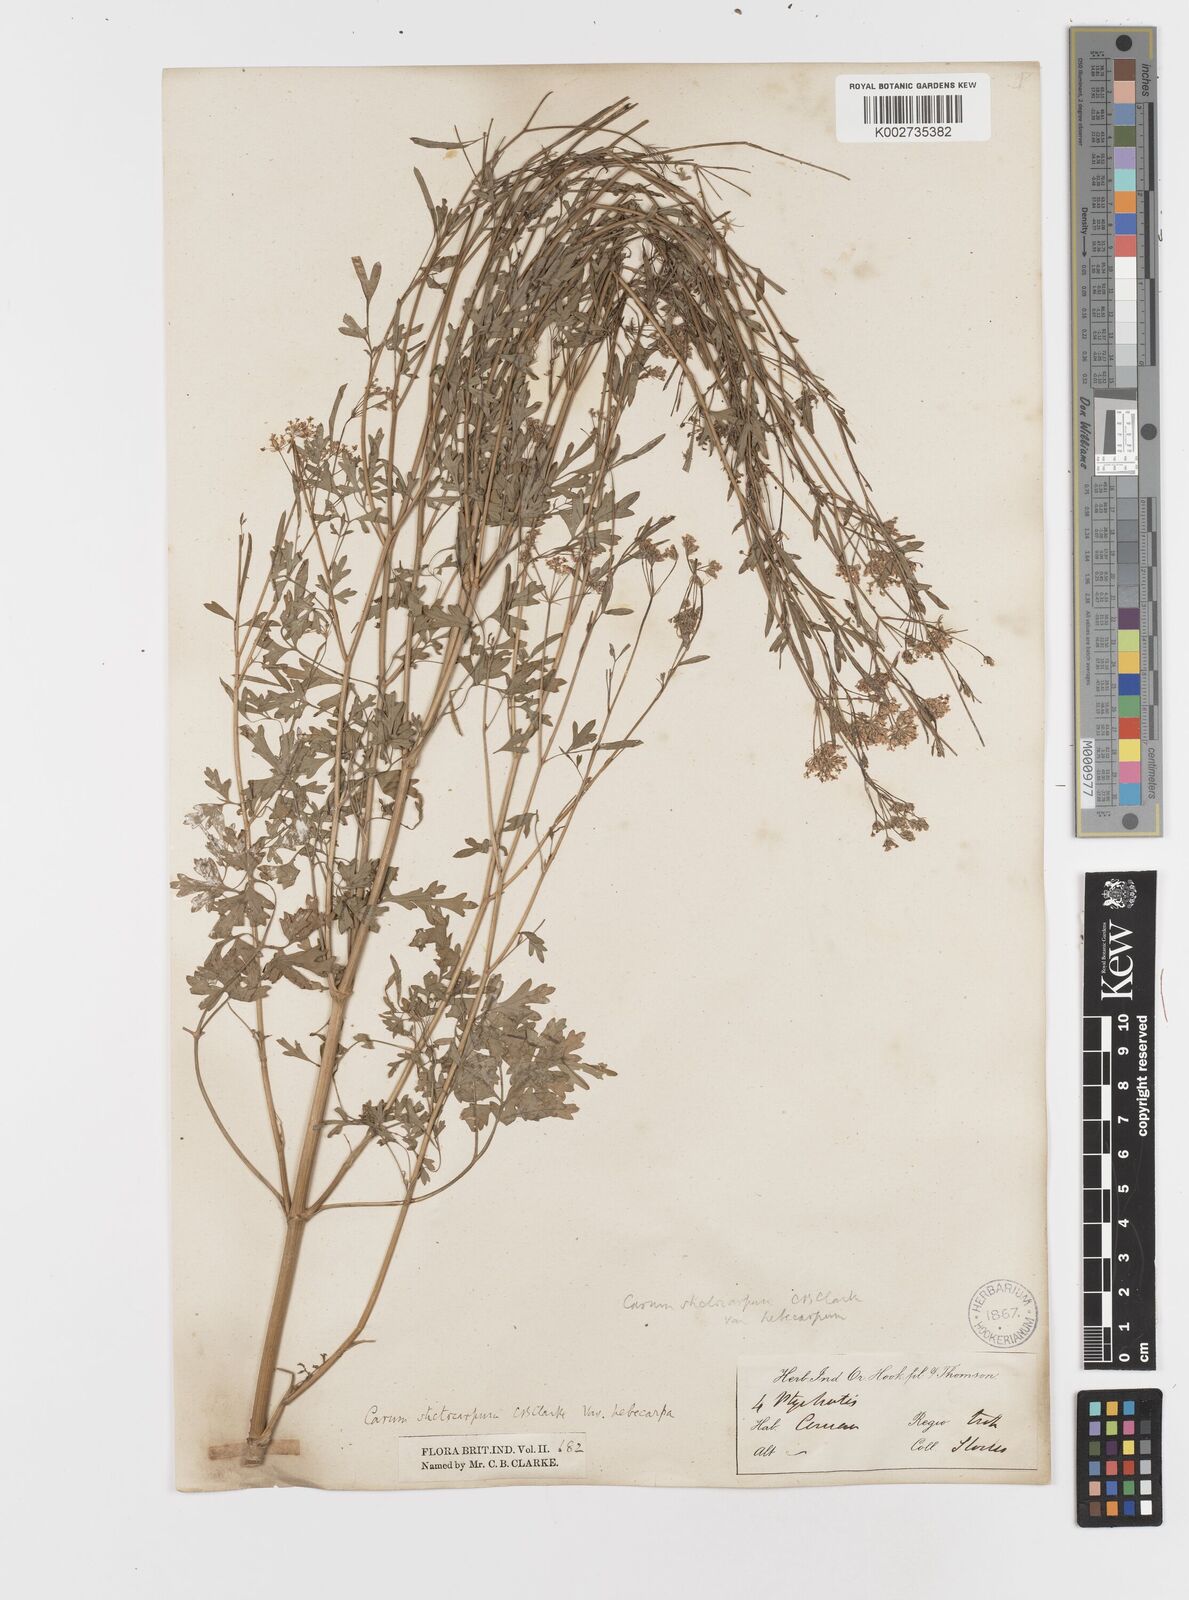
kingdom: Plantae
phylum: Tracheophyta
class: Magnoliopsida
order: Apiales
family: Apiaceae
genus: Psammogeton
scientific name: Psammogeton involucratum
